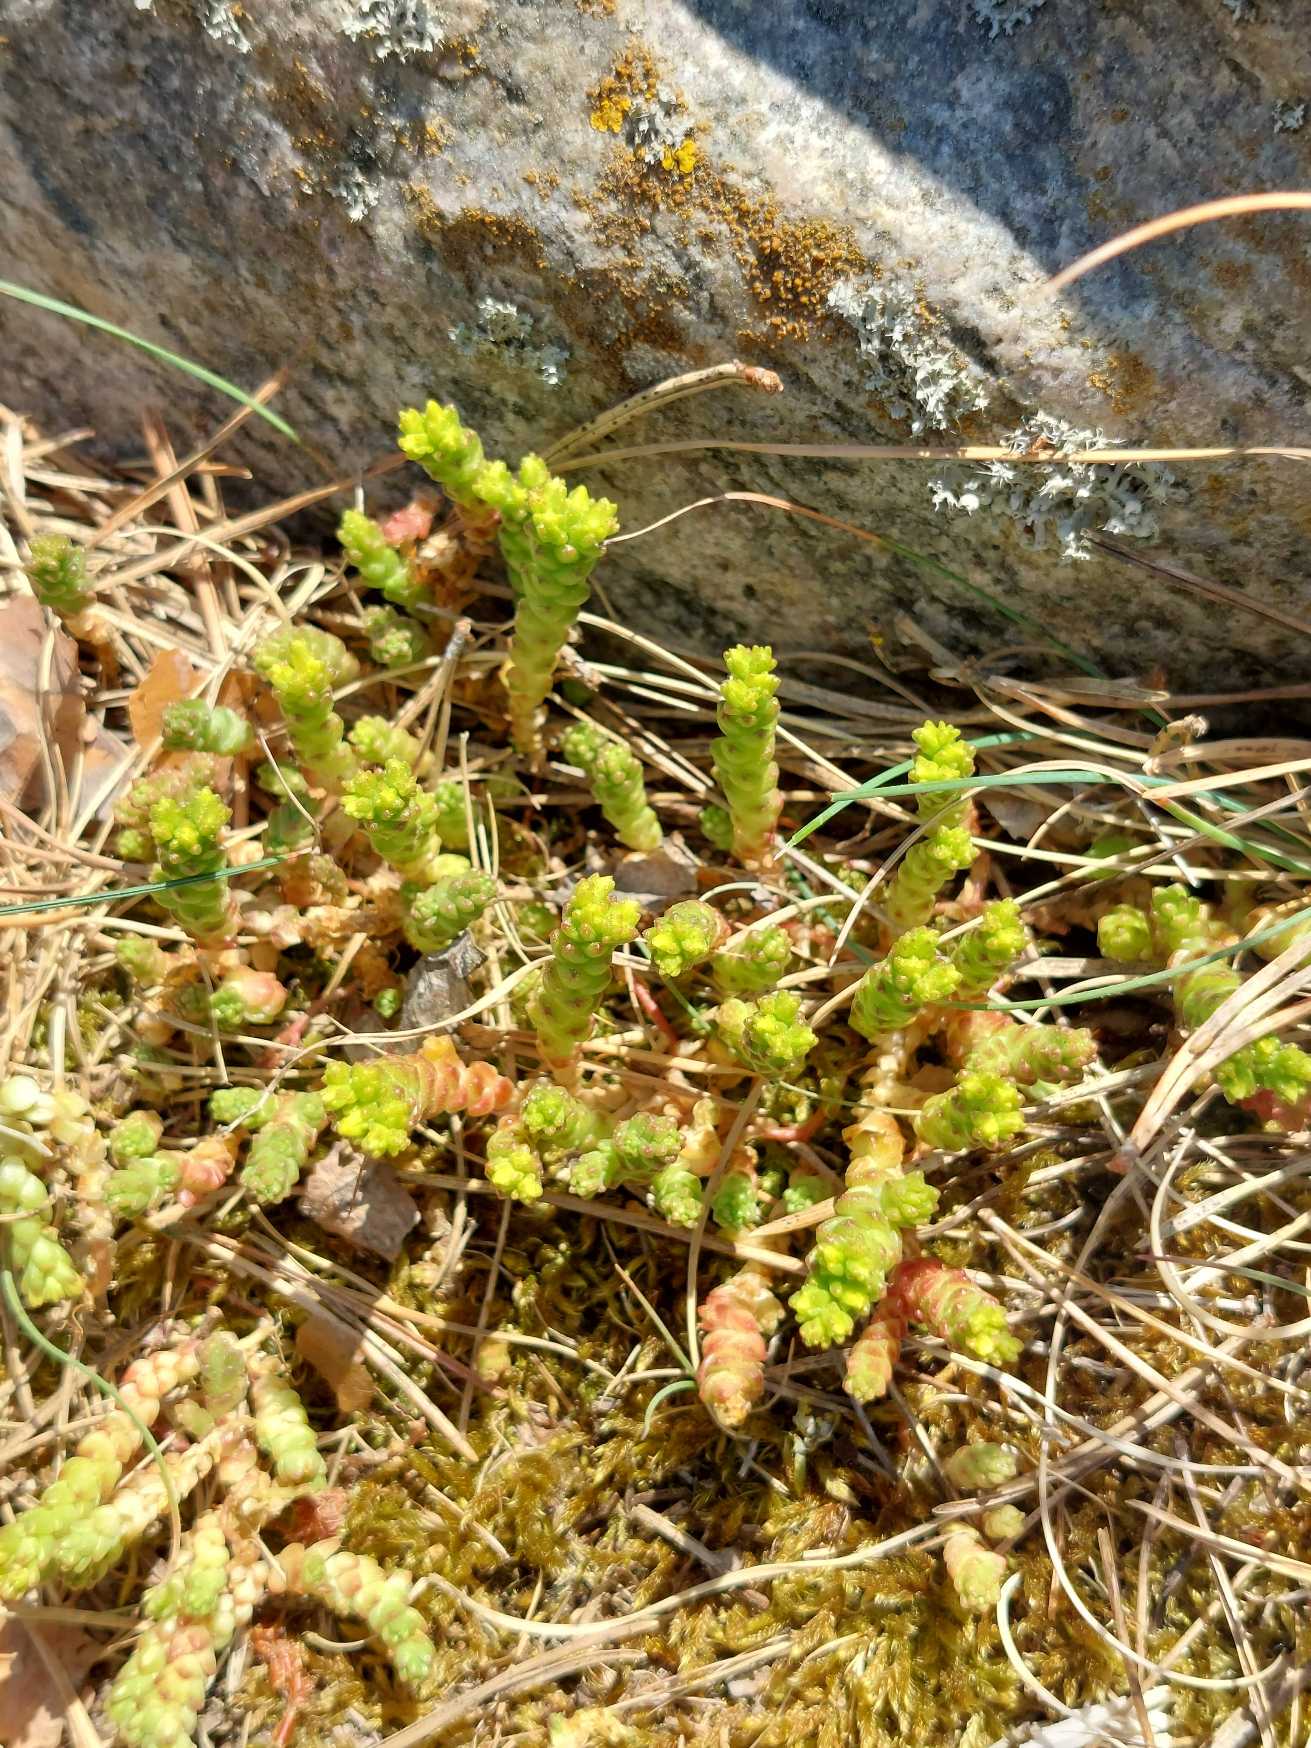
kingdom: Plantae
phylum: Tracheophyta
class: Magnoliopsida
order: Saxifragales
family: Crassulaceae
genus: Sedum
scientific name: Sedum acre
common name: Bidende stenurt
